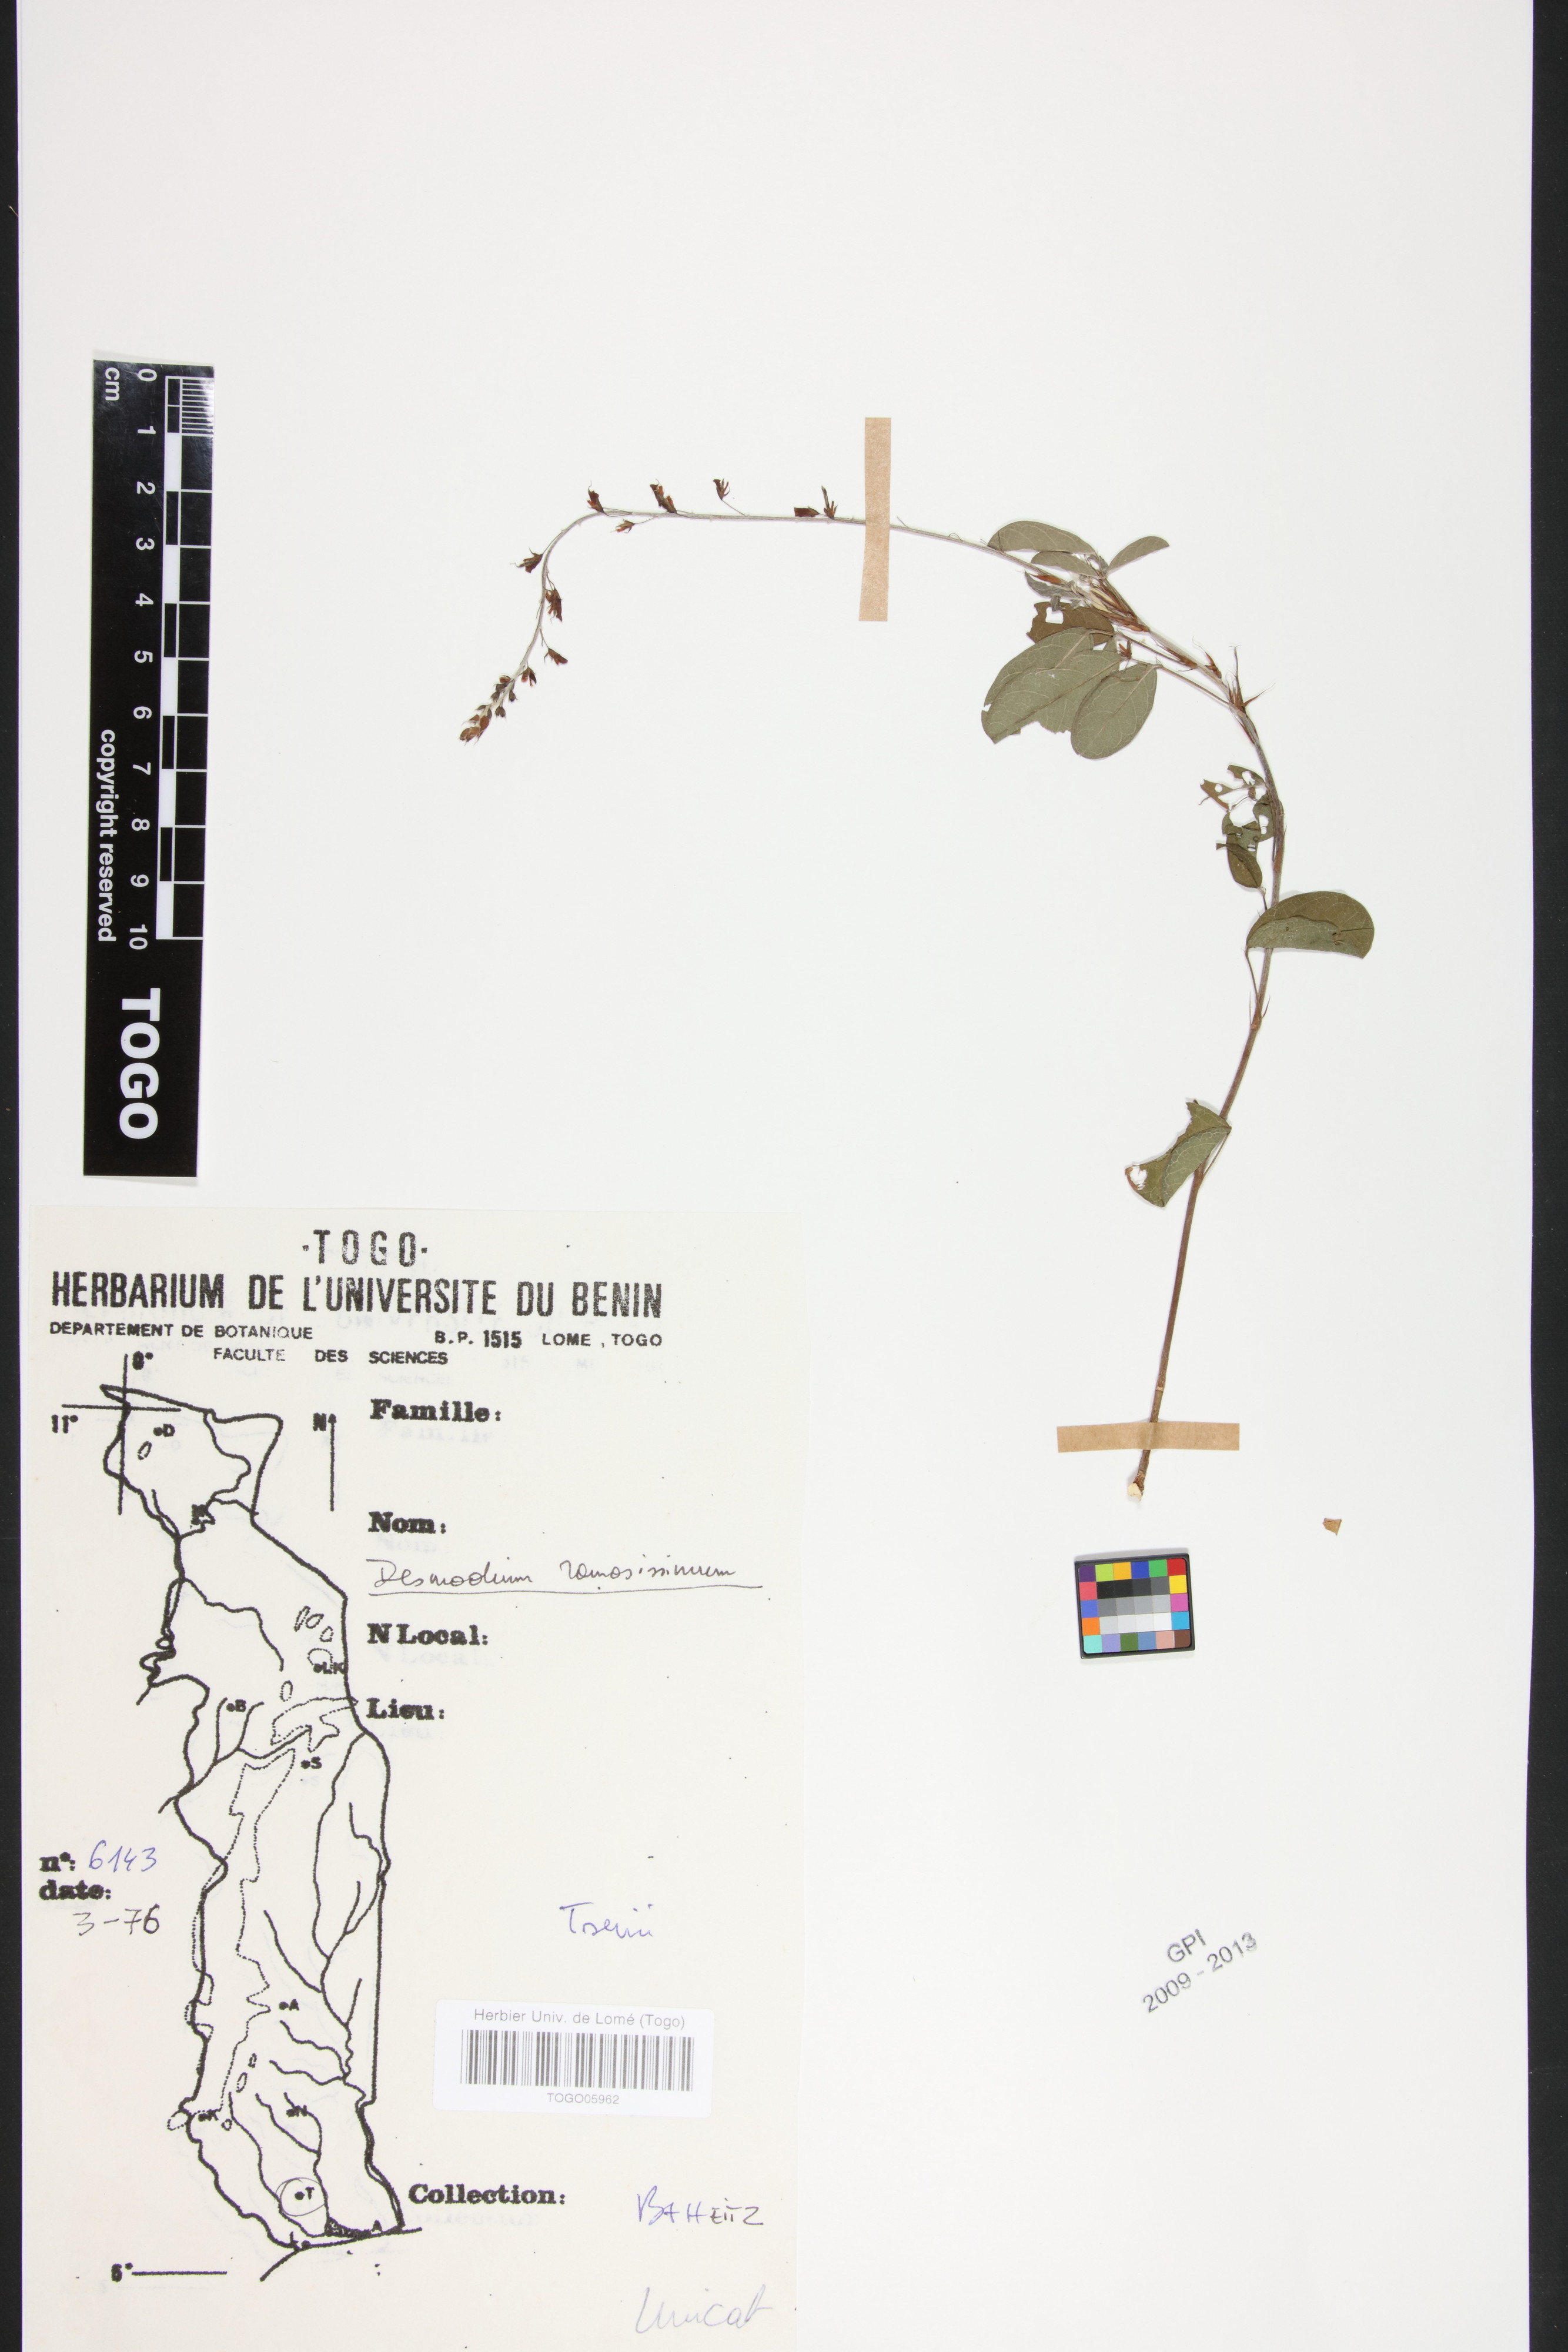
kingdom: Plantae
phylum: Tracheophyta
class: Magnoliopsida
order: Fabales
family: Fabaceae
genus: Grona
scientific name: Grona ramosissima
